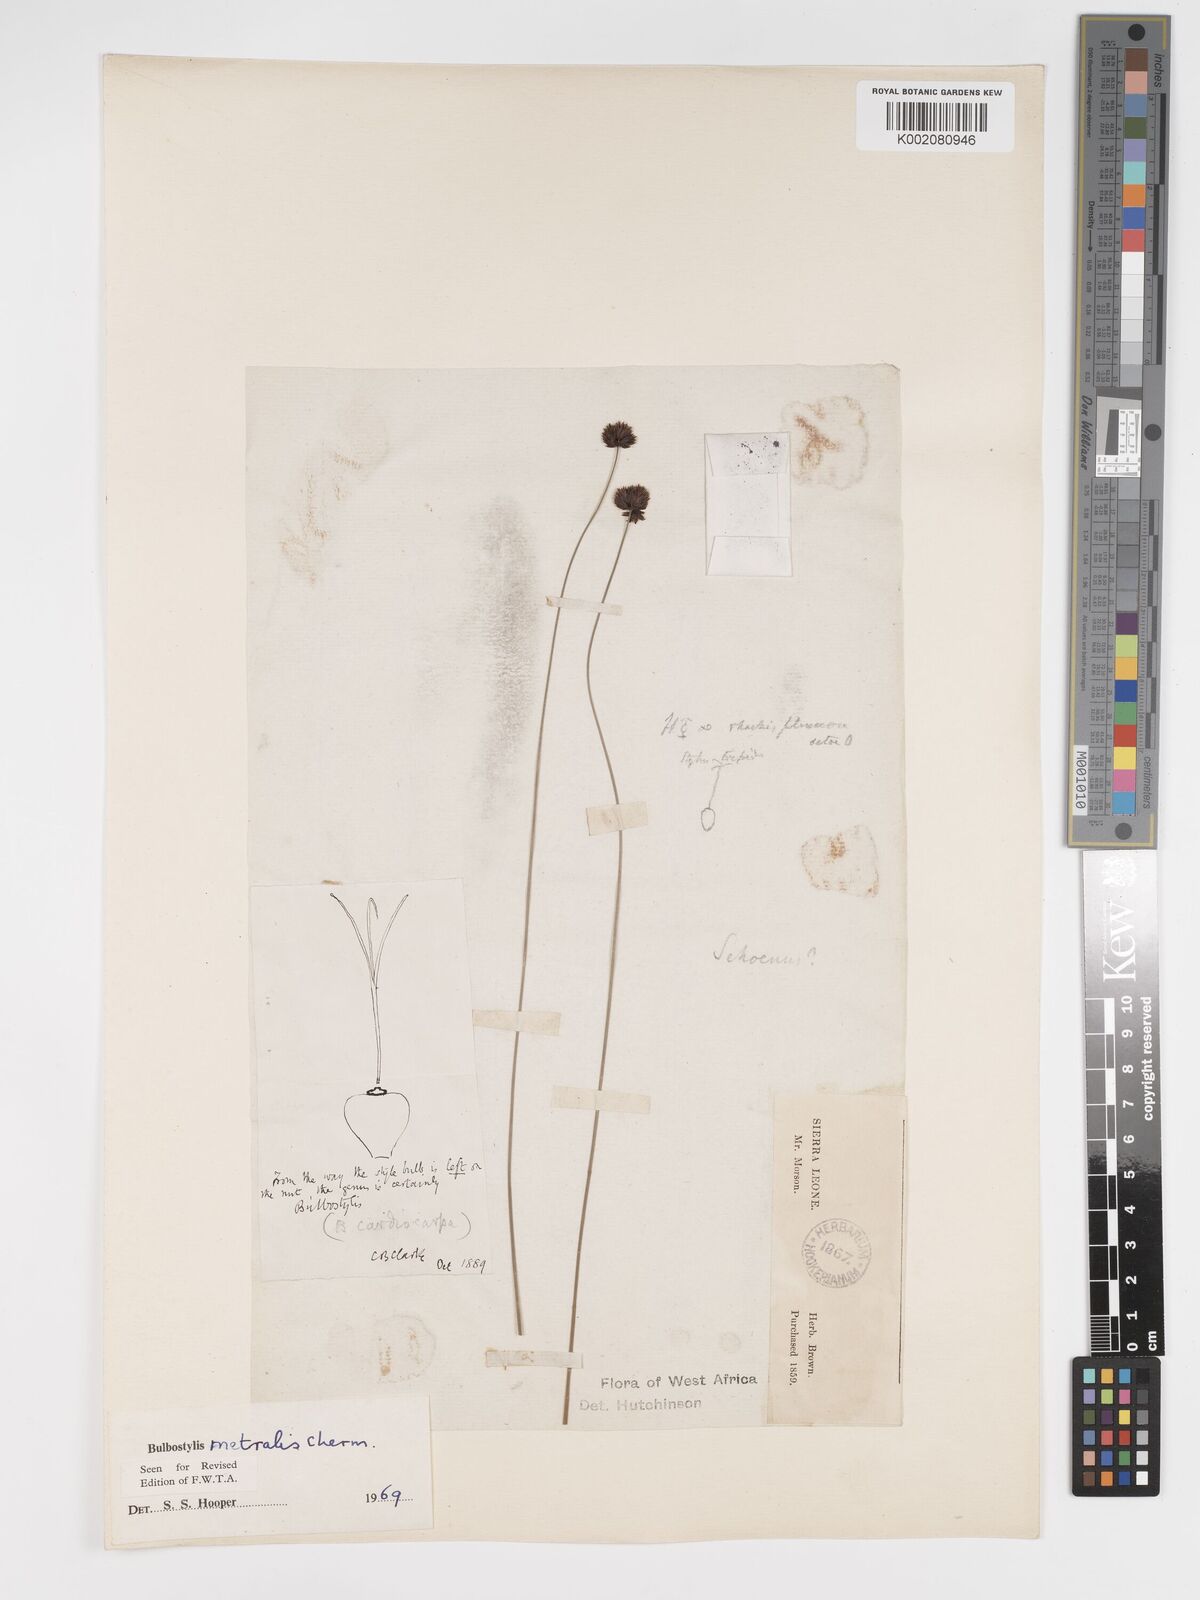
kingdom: Plantae
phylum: Tracheophyta
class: Liliopsida
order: Poales
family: Cyperaceae
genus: Bulbostylis
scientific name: Bulbostylis filamentosa
